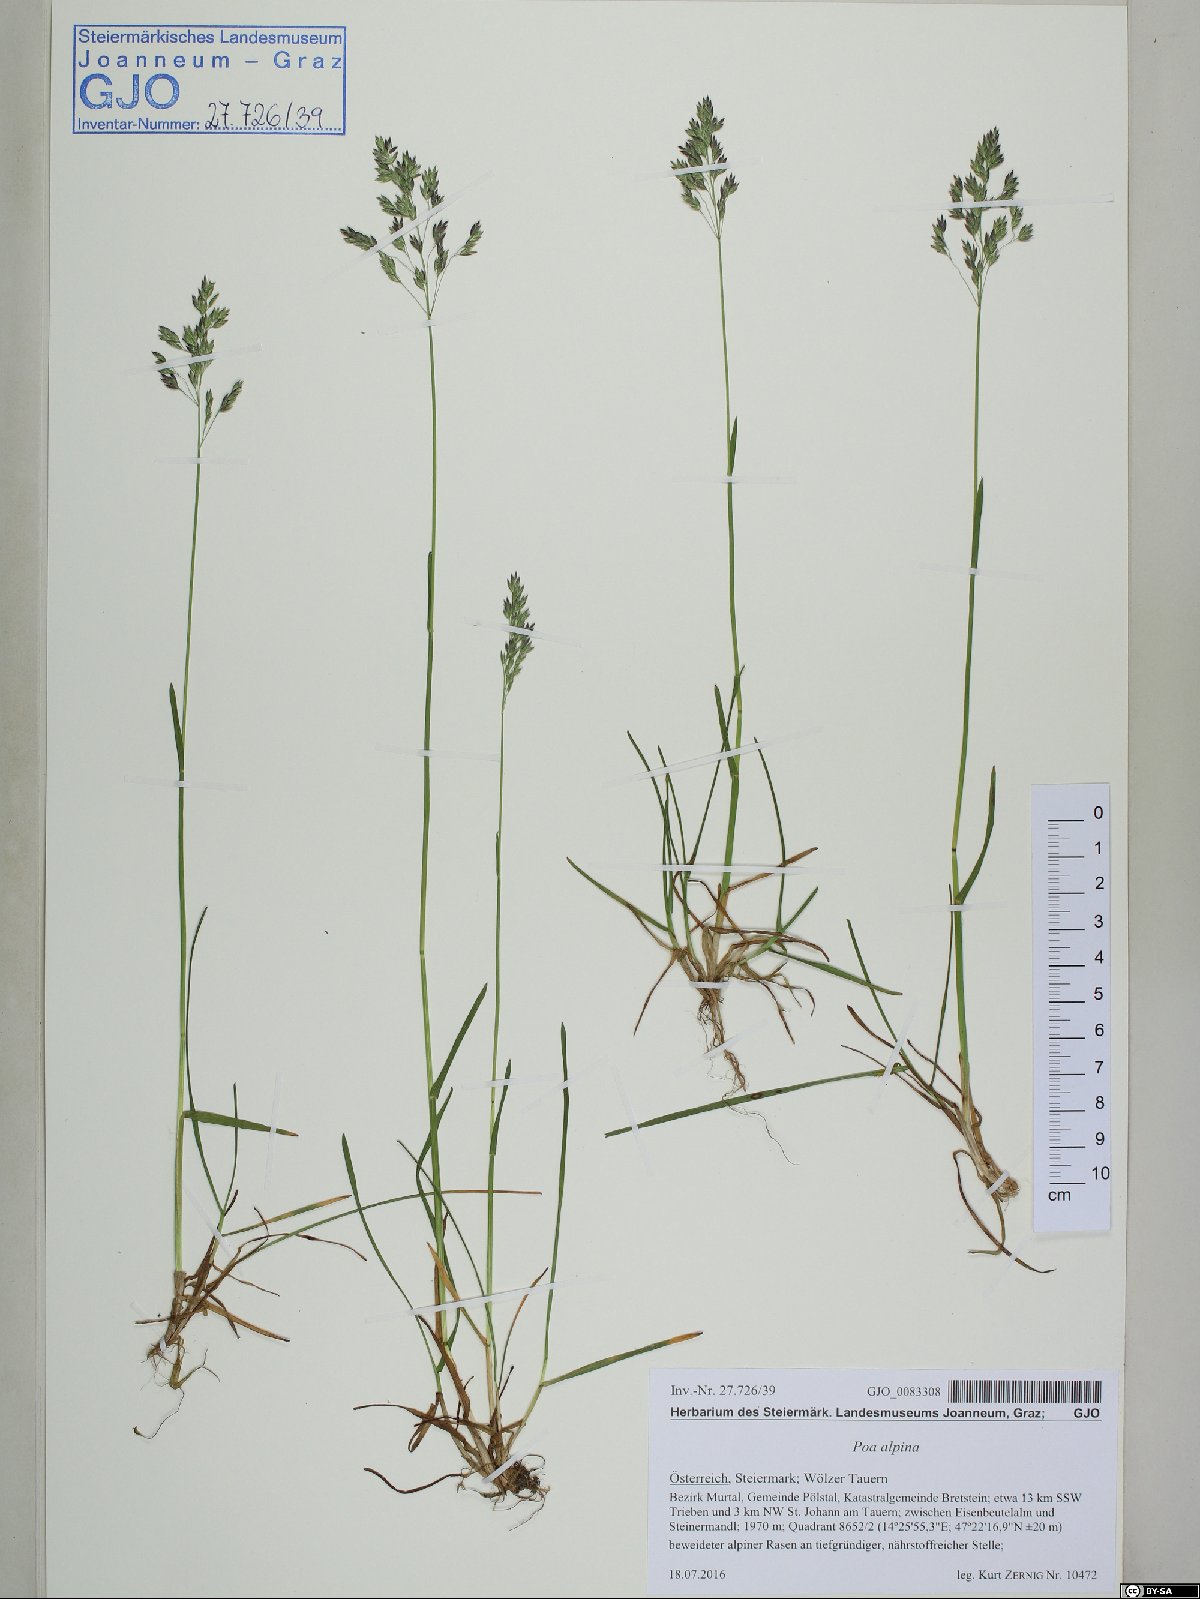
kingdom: Plantae
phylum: Tracheophyta
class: Liliopsida
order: Poales
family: Poaceae
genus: Poa
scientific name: Poa alpina
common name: Alpine bluegrass
